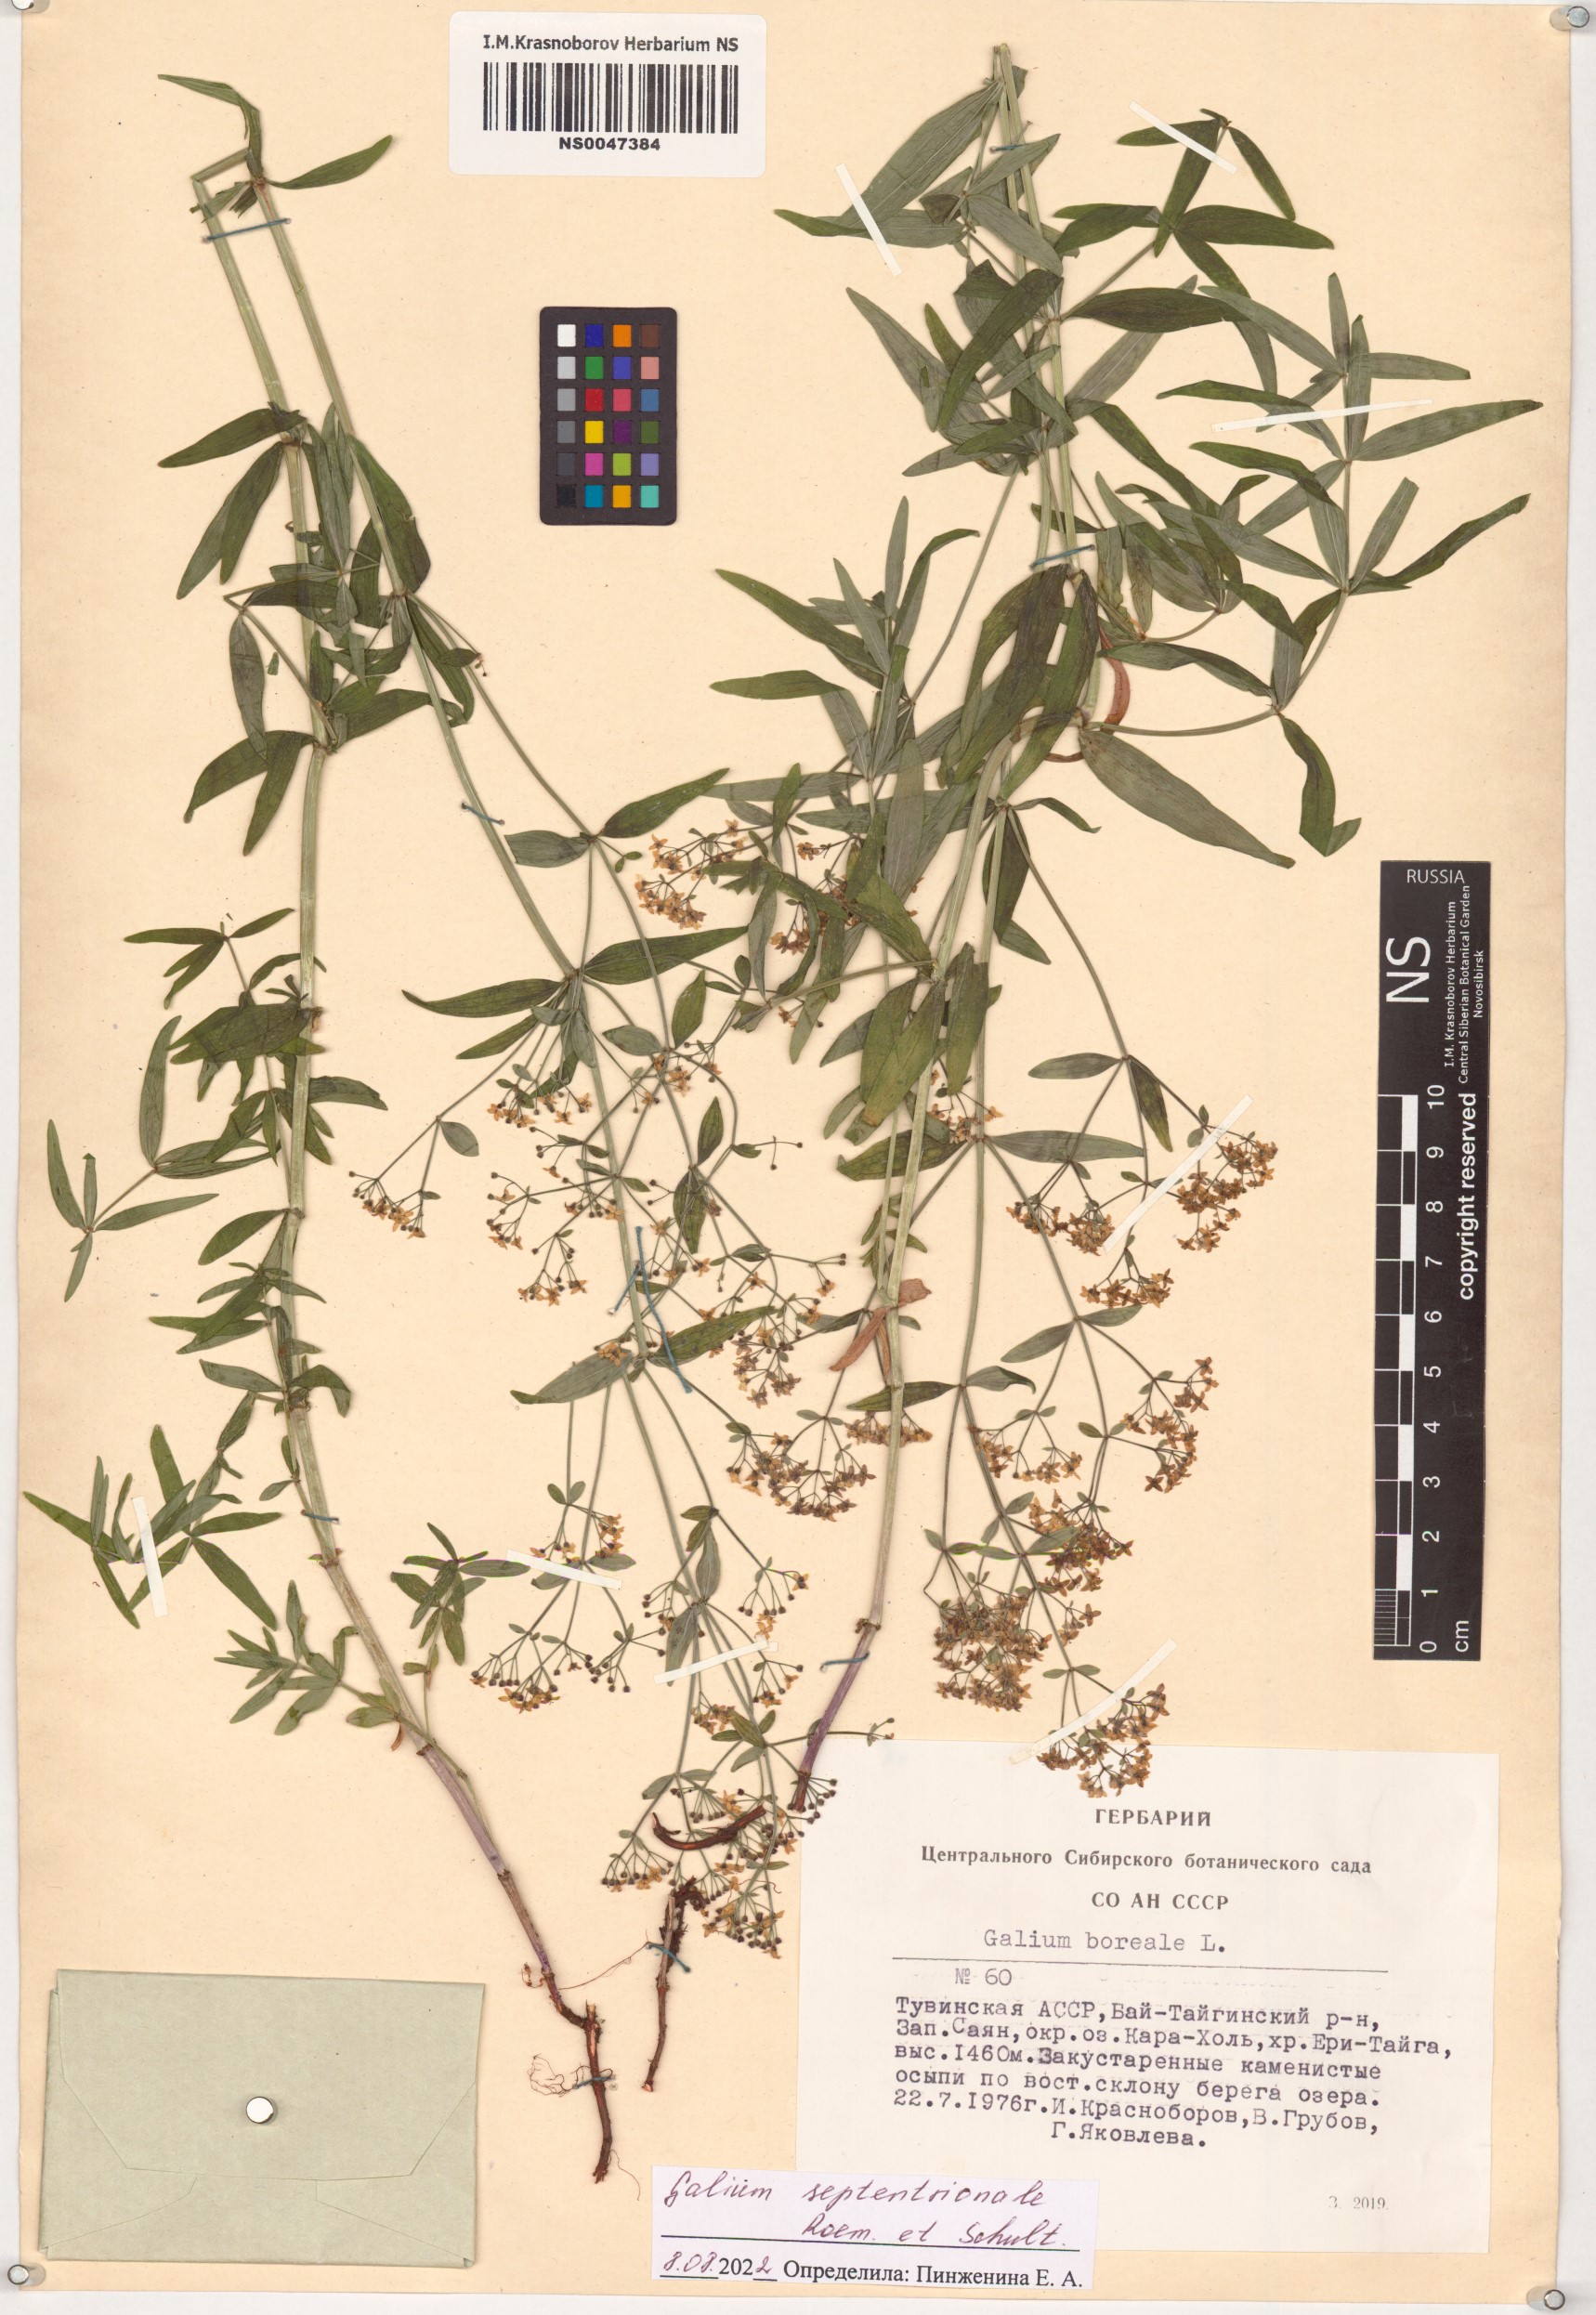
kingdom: Plantae
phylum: Tracheophyta
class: Magnoliopsida
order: Gentianales
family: Rubiaceae
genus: Galium
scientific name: Galium boreale
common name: Northern bedstraw
